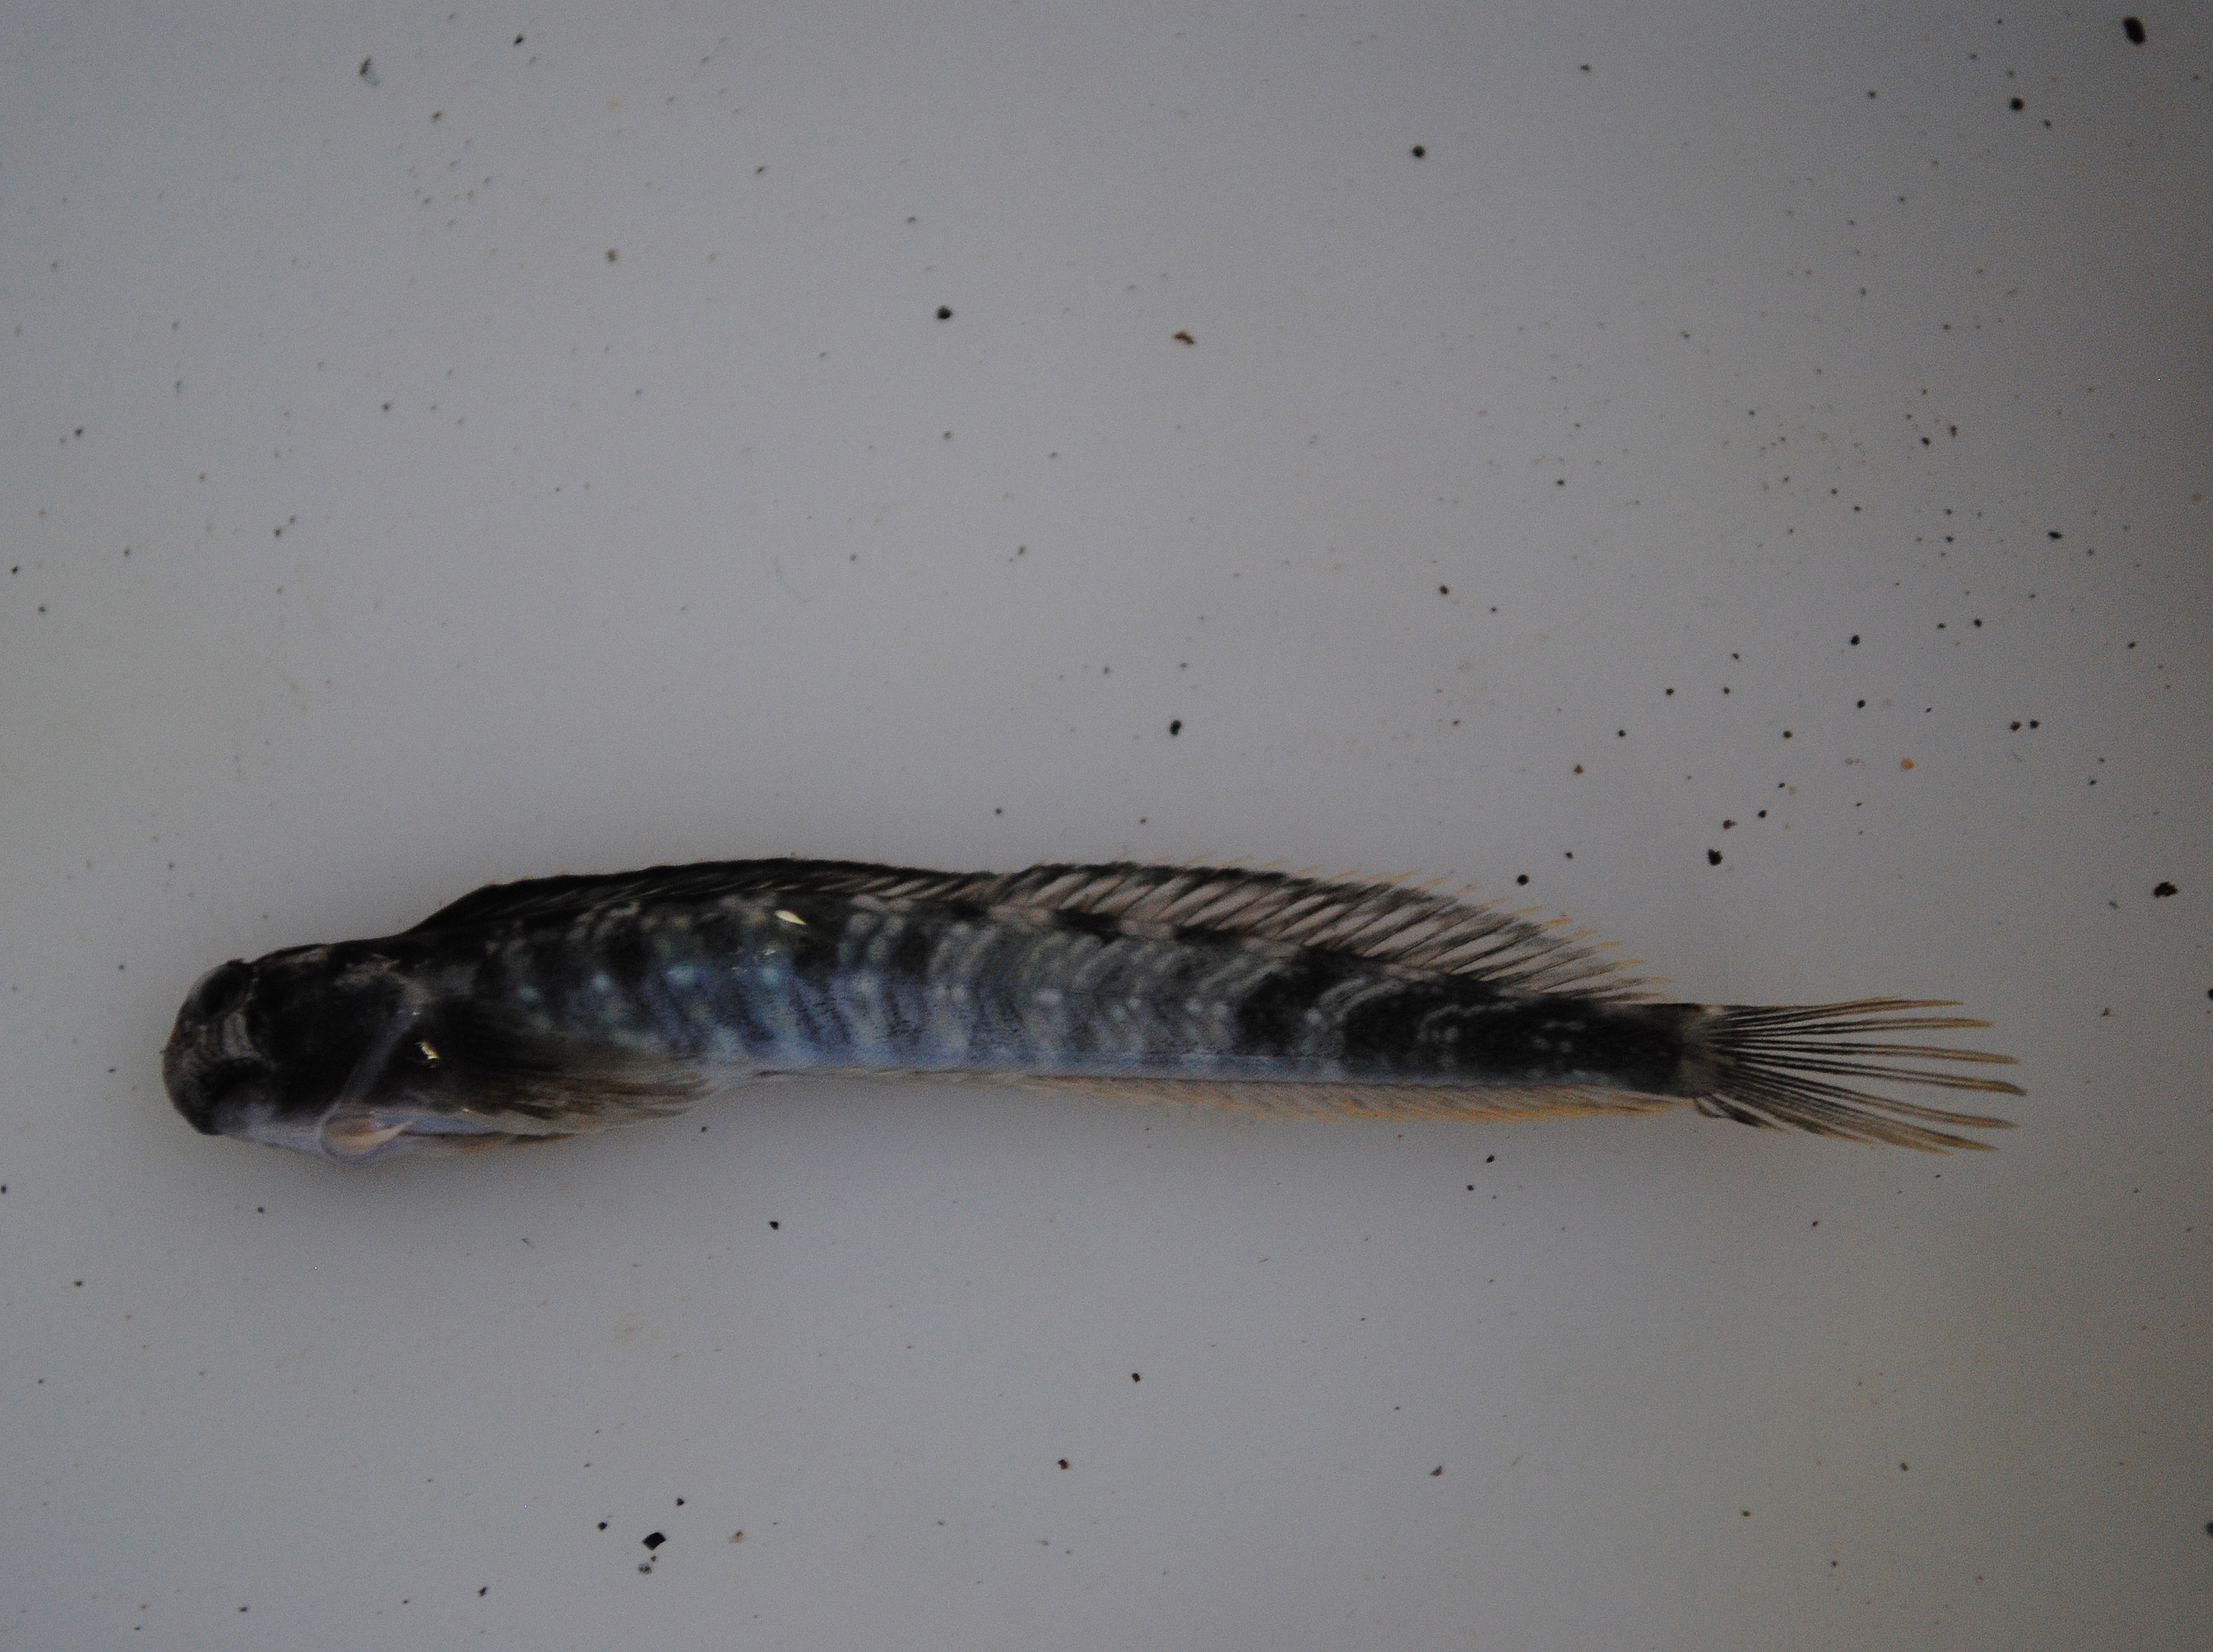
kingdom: Animalia
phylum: Chordata
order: Perciformes
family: Blenniidae
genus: Alticus
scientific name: Alticus
